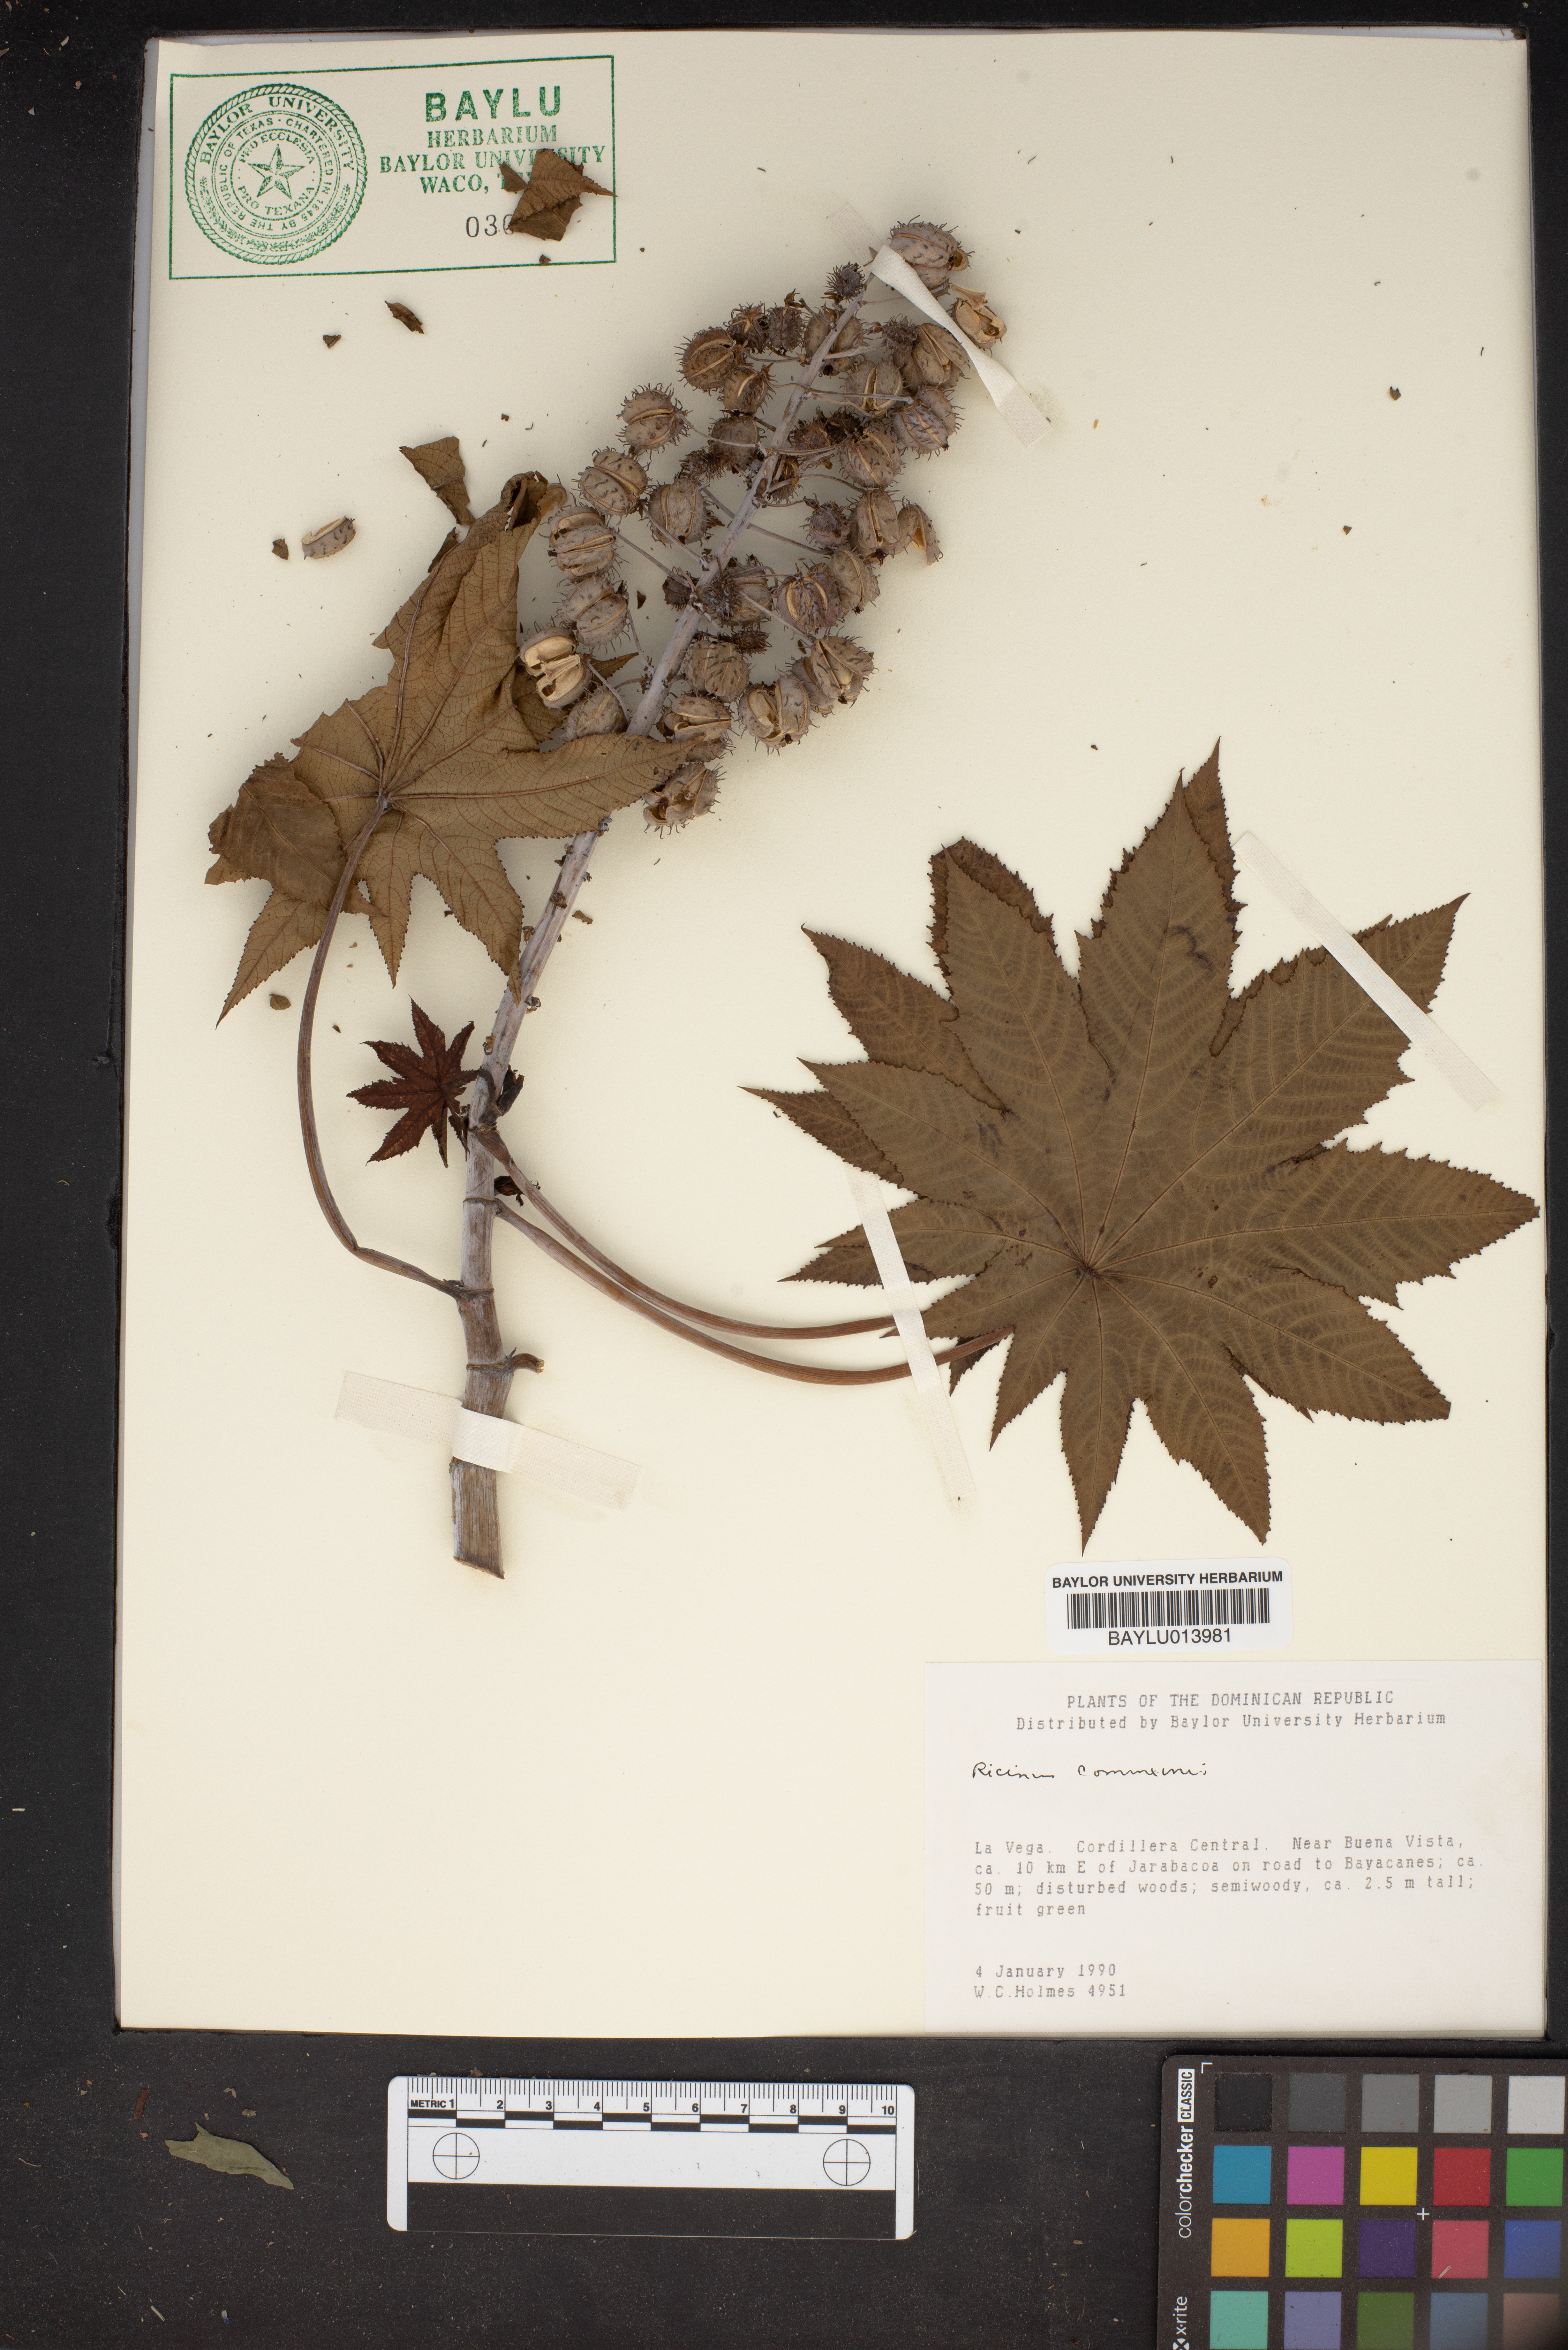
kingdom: Plantae
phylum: Tracheophyta
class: Magnoliopsida
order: Malpighiales
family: Euphorbiaceae
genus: Ricinus
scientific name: Ricinus communis
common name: Castor-oil-plant
